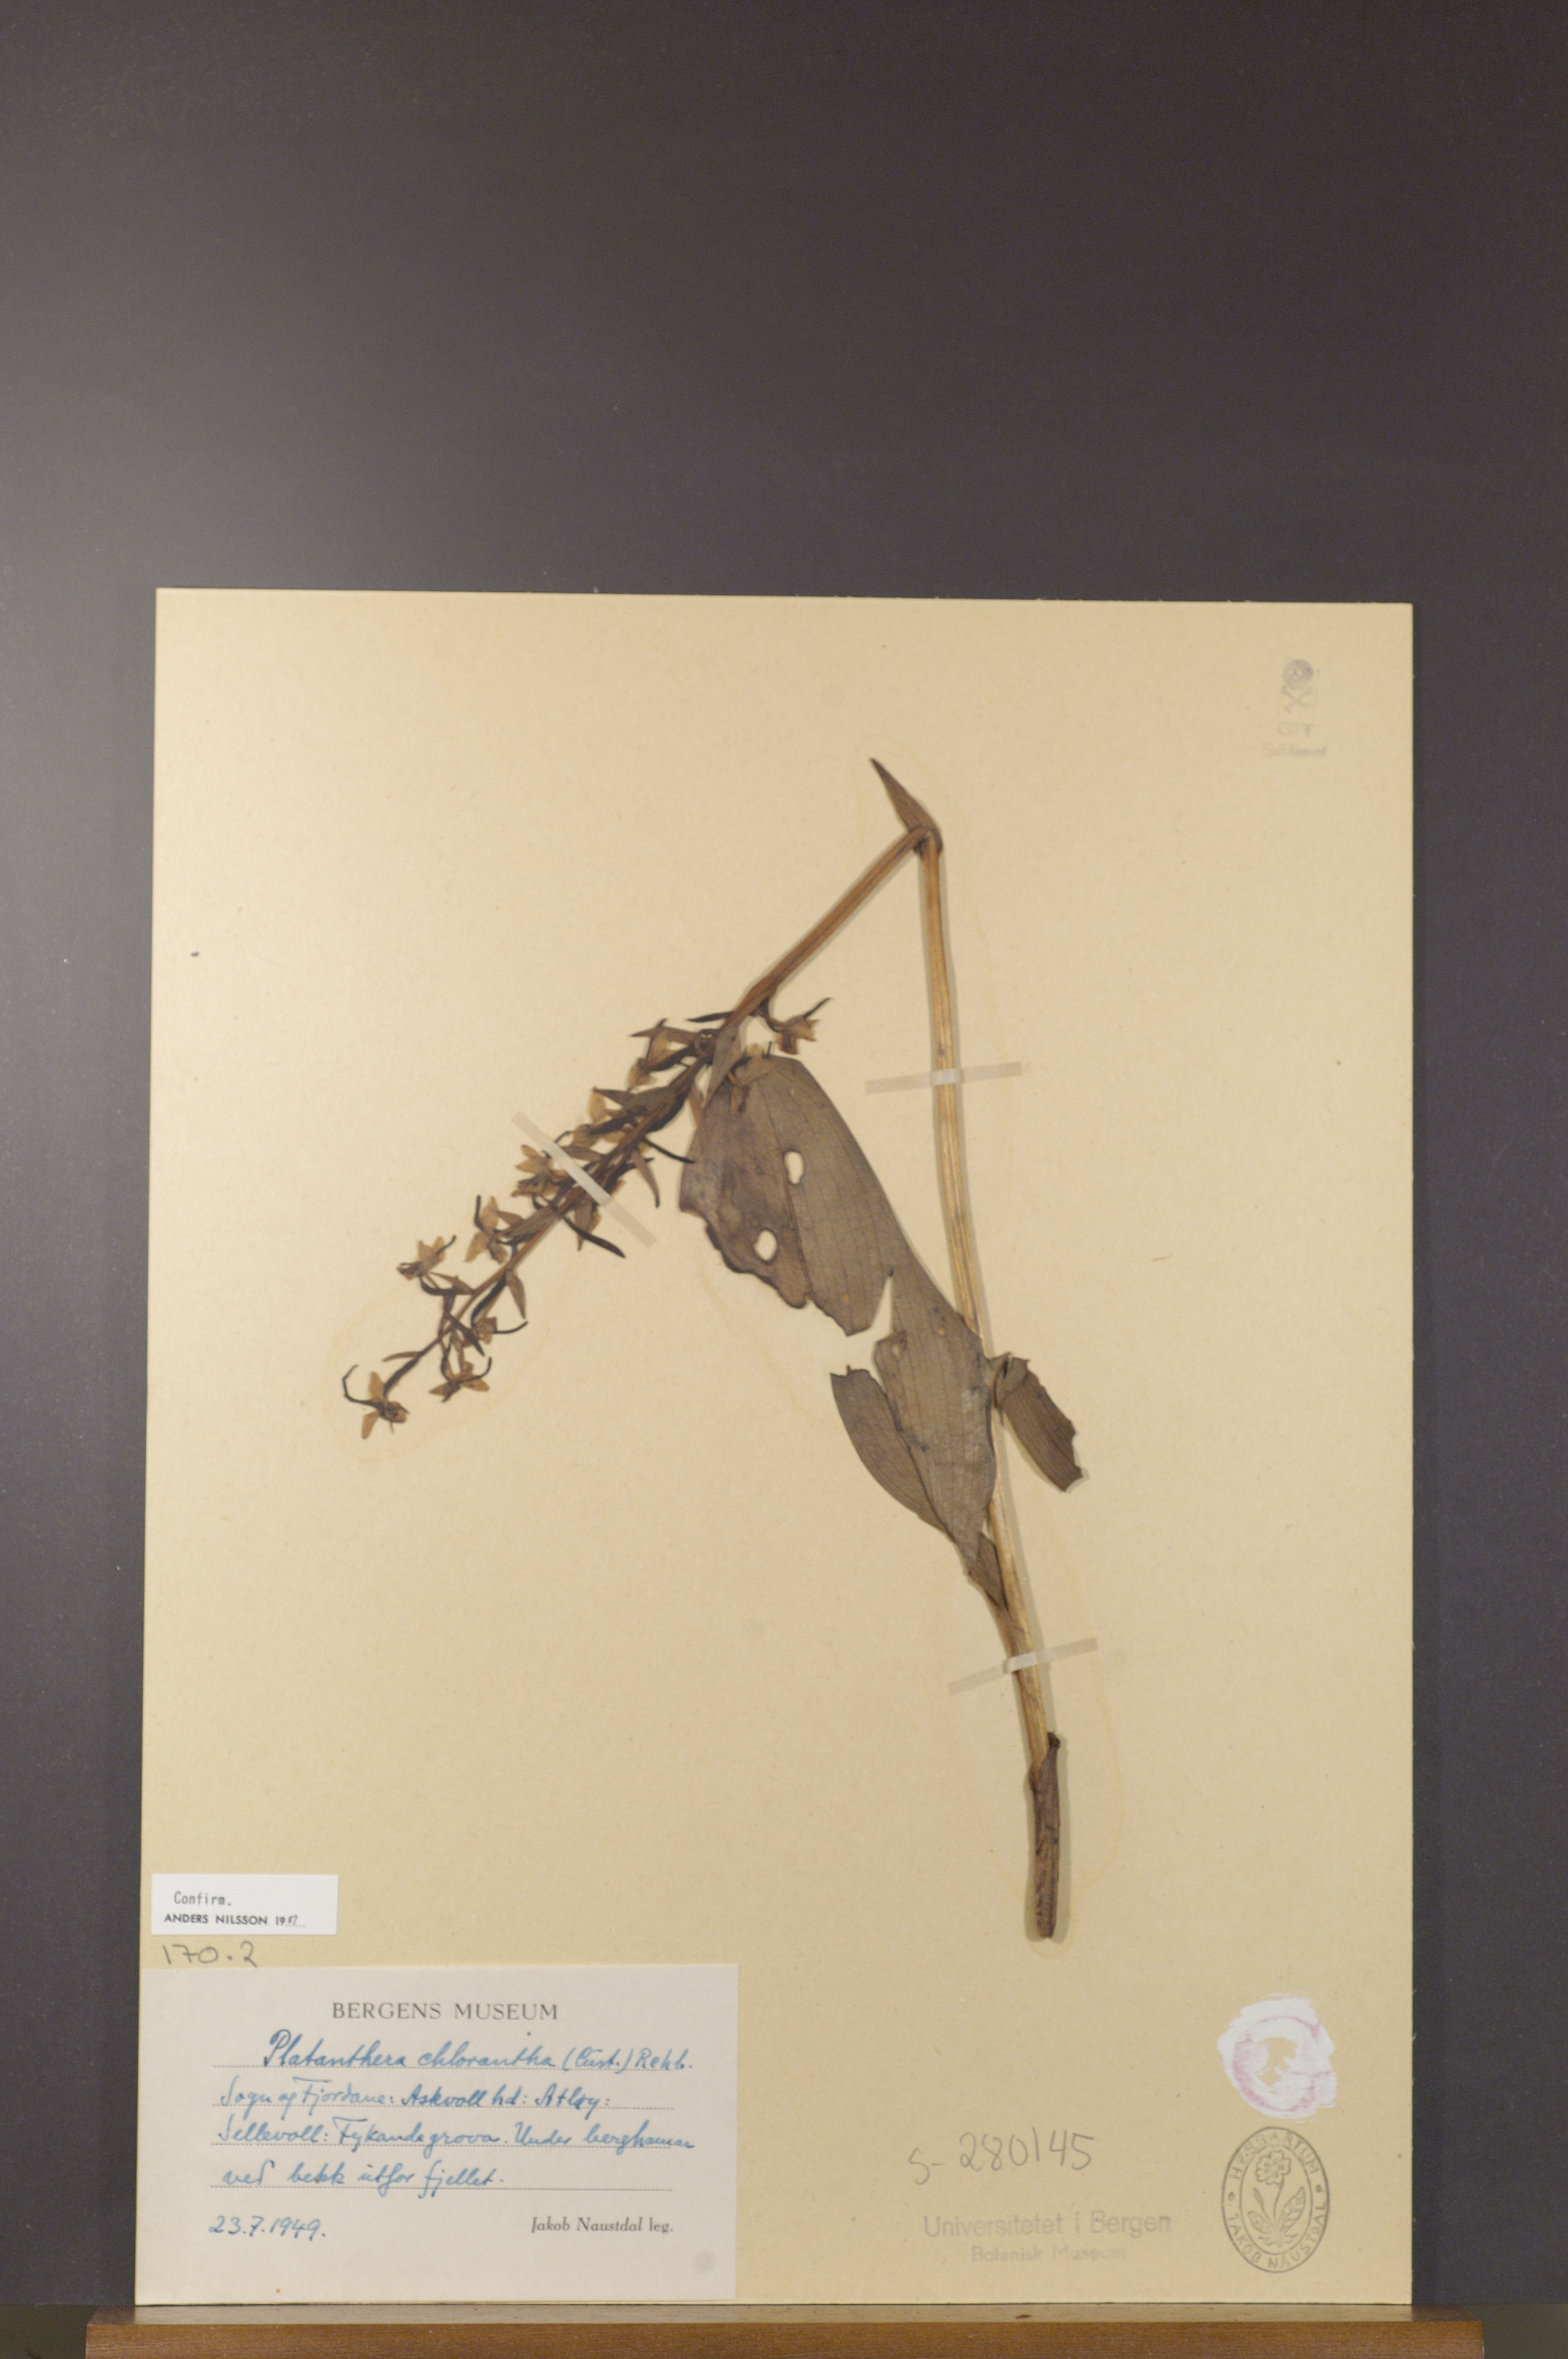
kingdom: Plantae
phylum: Tracheophyta
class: Liliopsida
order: Asparagales
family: Orchidaceae
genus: Platanthera
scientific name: Platanthera chlorantha
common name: Greater butterfly-orchid
